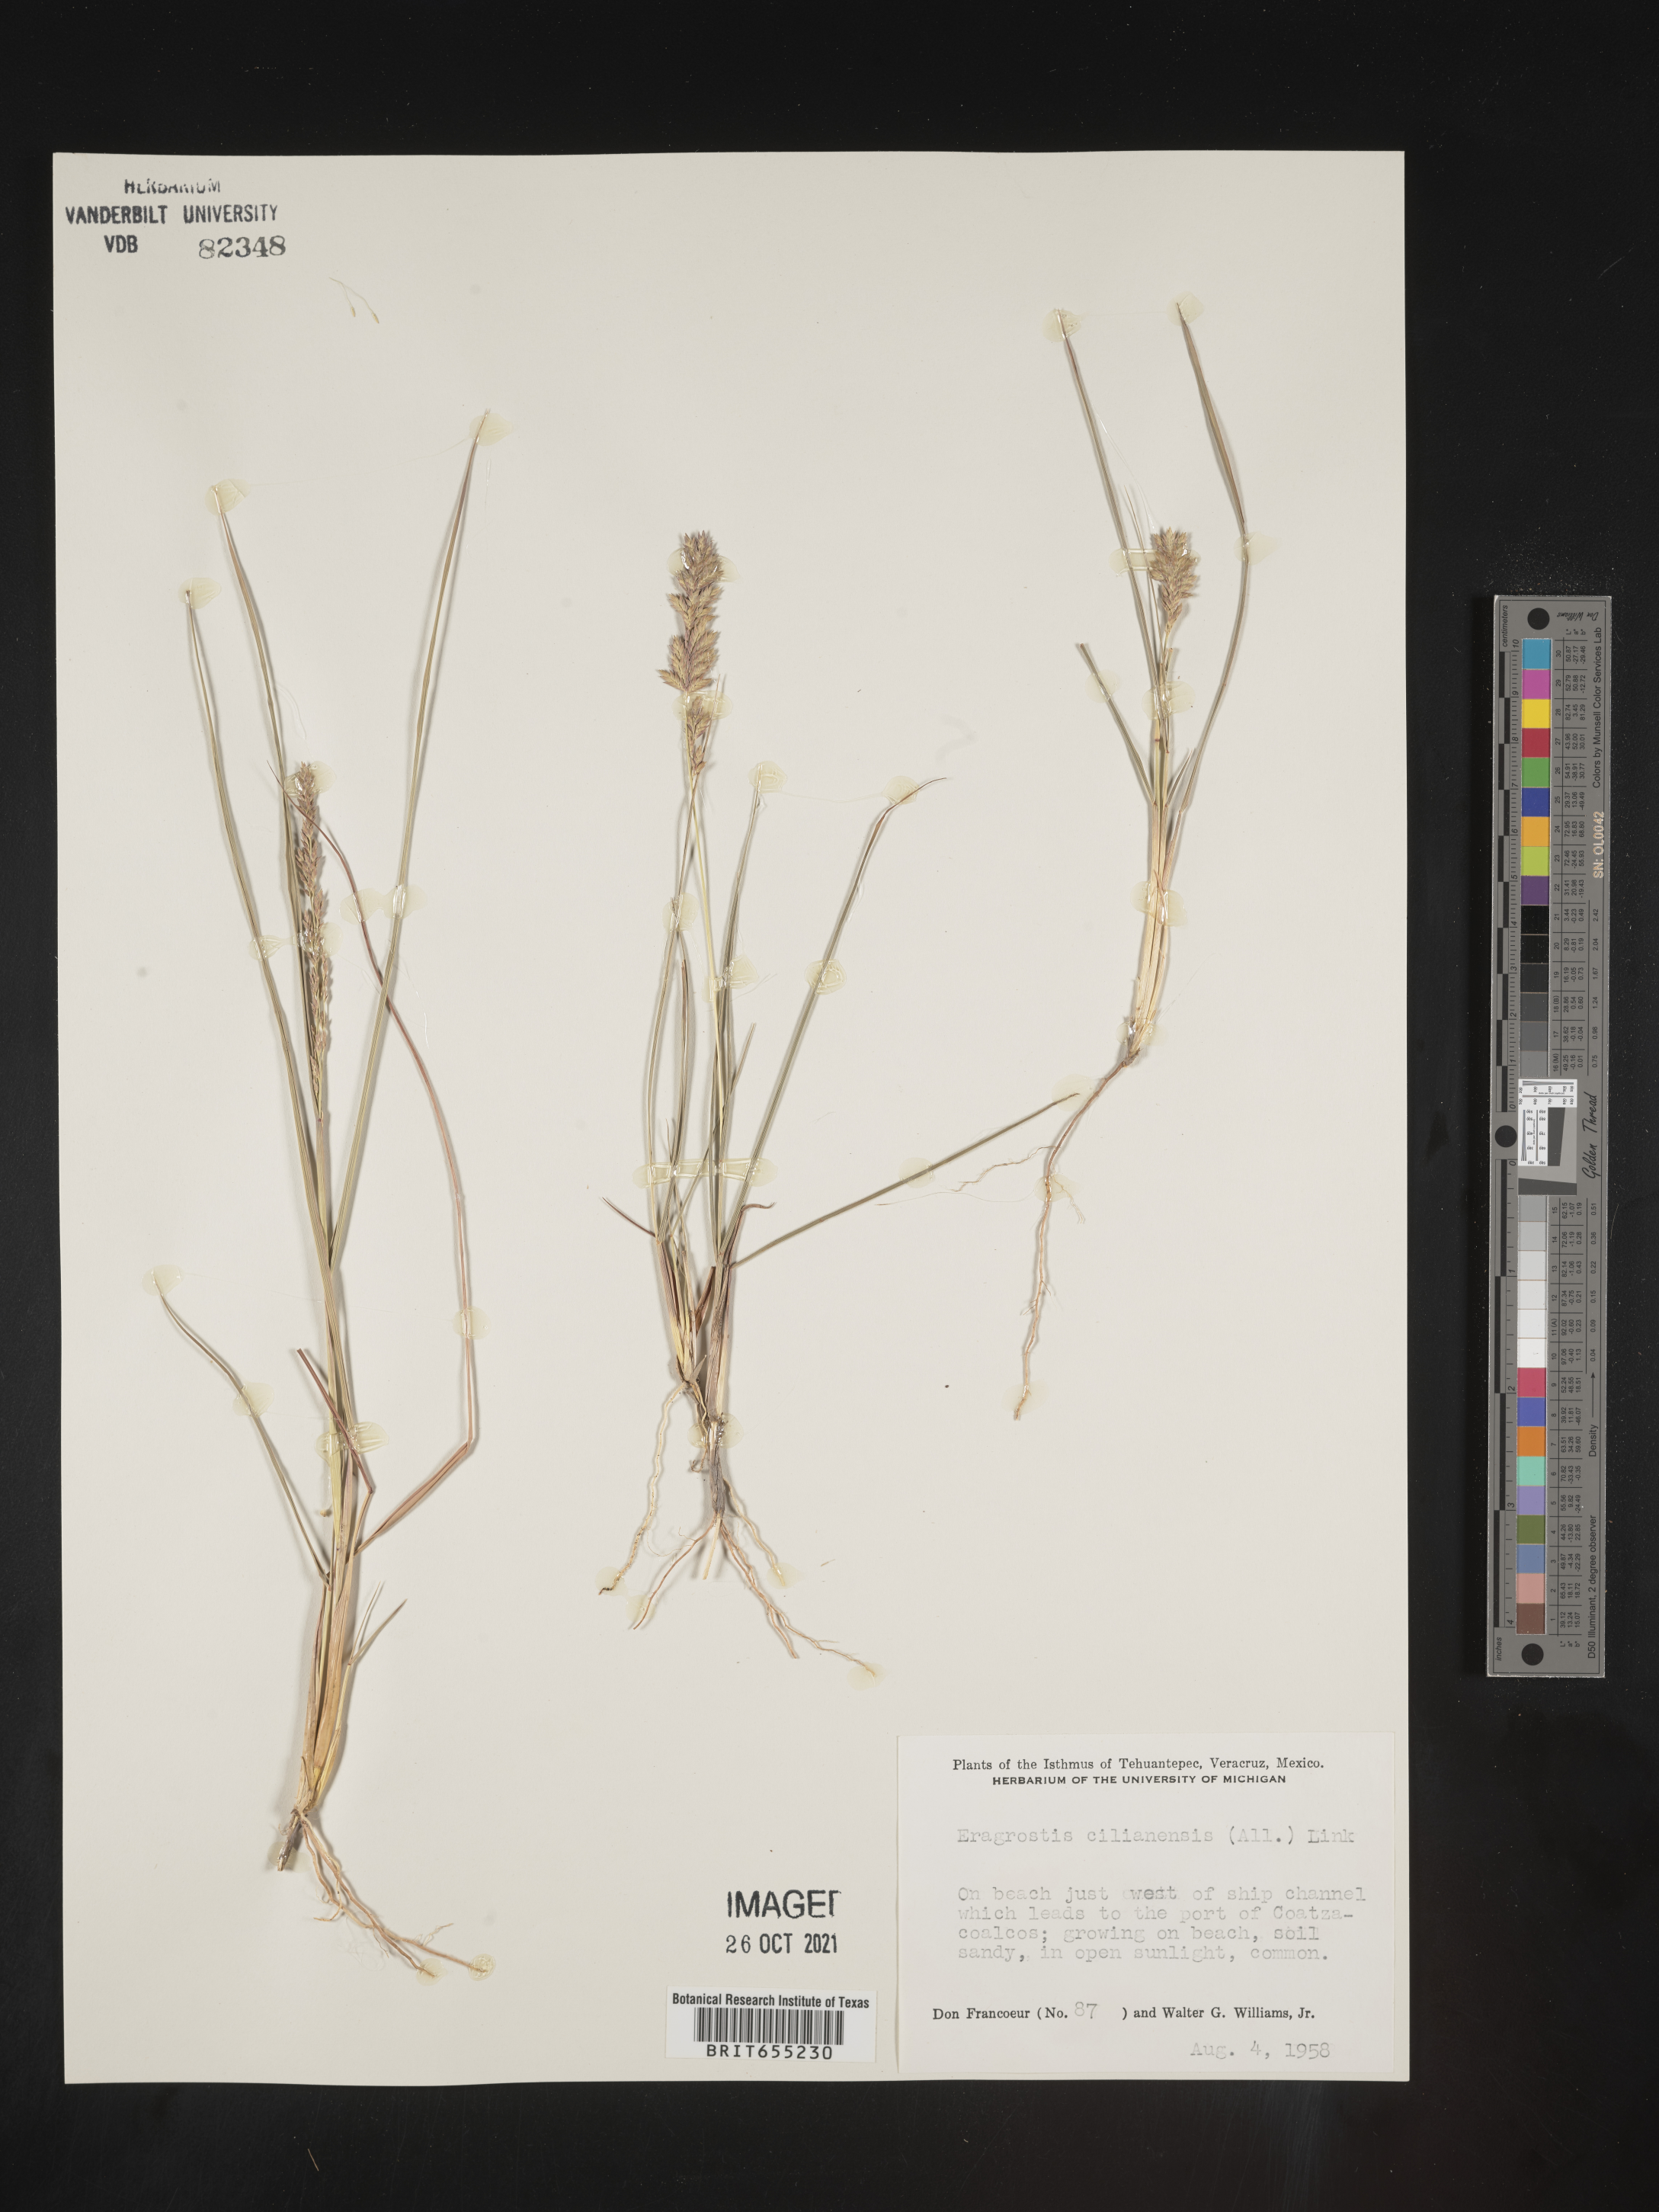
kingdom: Plantae
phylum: Tracheophyta
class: Liliopsida
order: Poales
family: Poaceae
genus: Eragrostis
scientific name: Eragrostis
